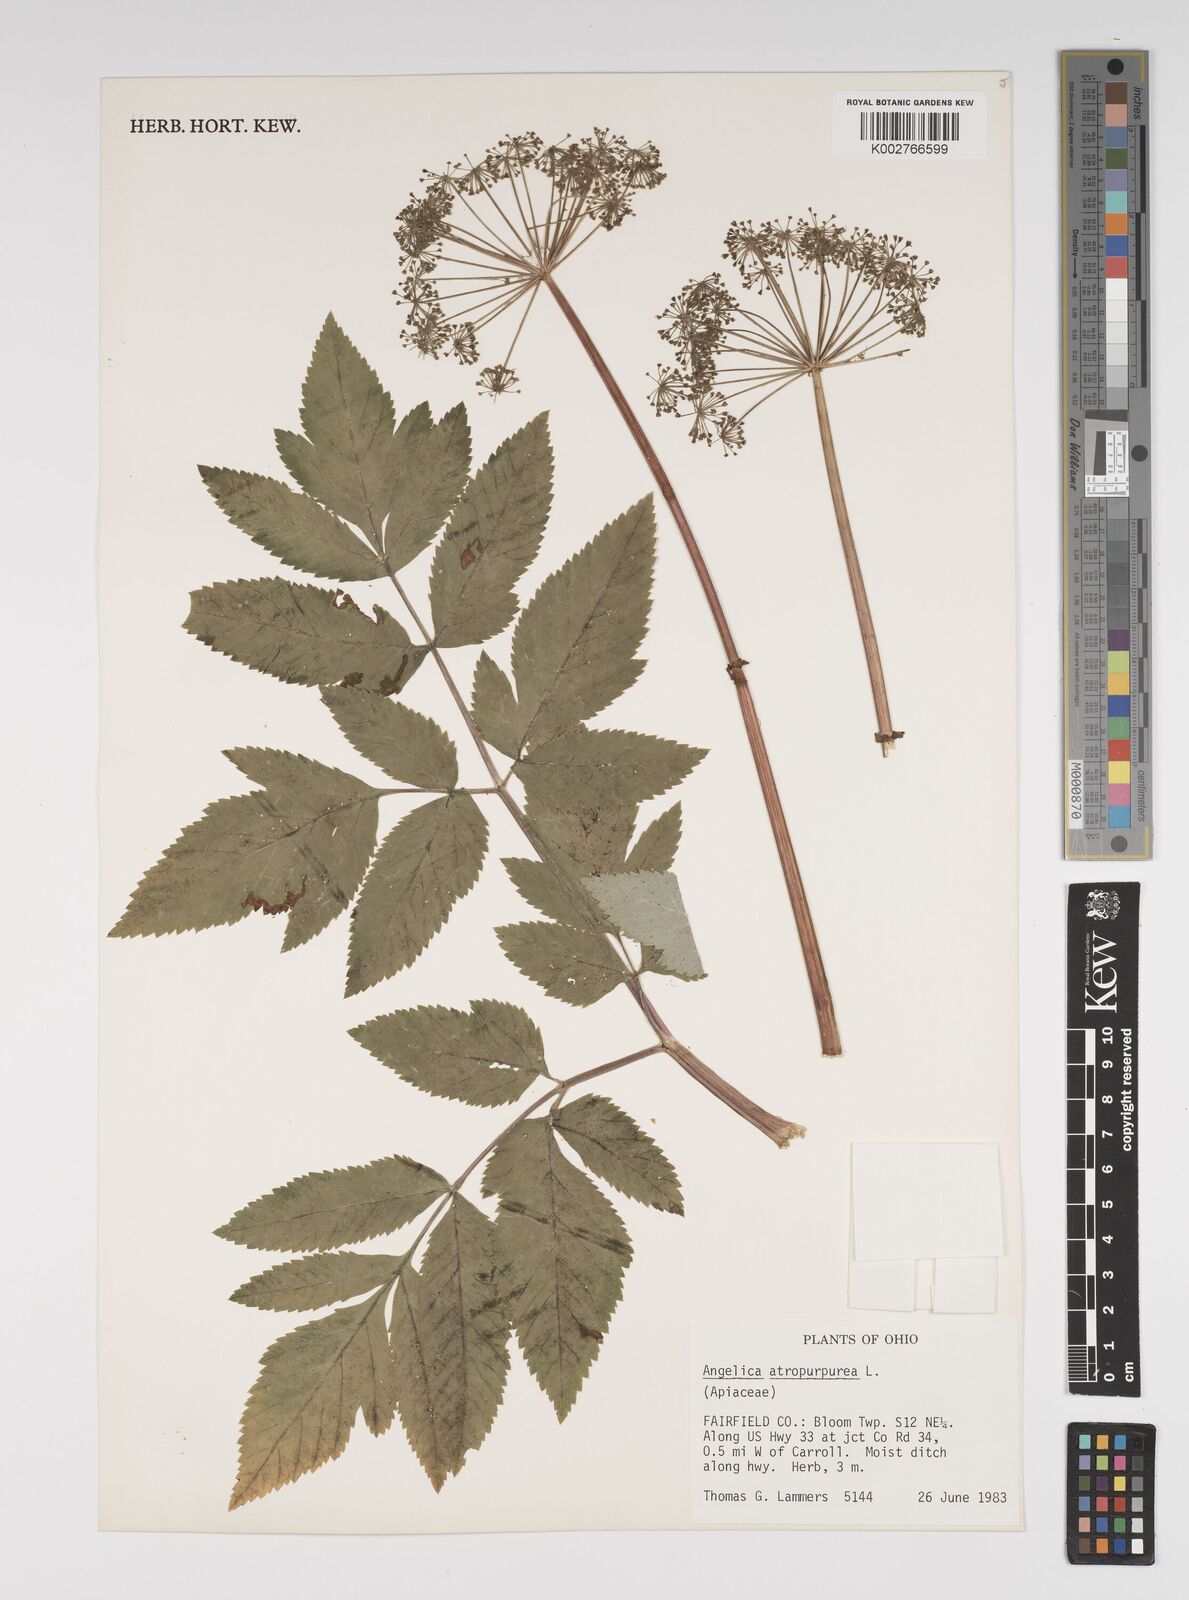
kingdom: Plantae
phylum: Tracheophyta
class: Magnoliopsida
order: Apiales
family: Apiaceae
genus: Angelica
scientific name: Angelica atropurpurea
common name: Great angelica
